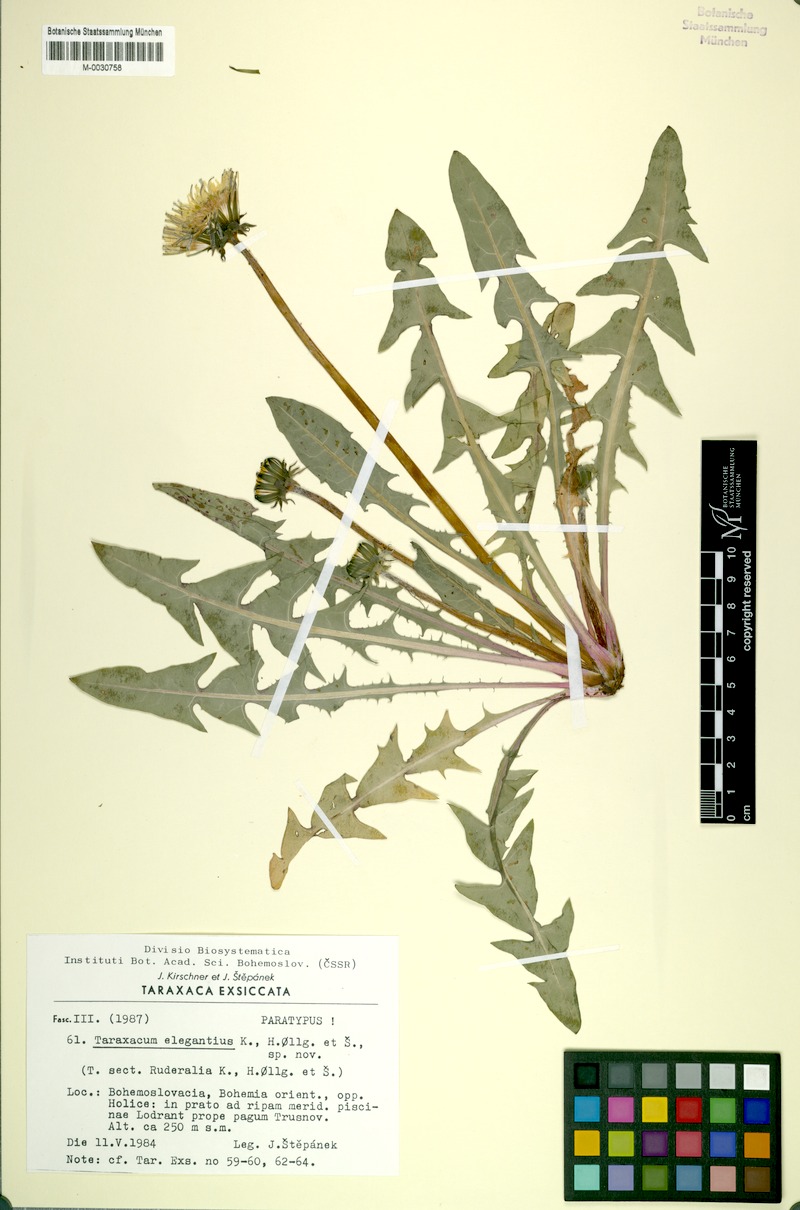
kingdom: Plantae
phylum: Tracheophyta
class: Magnoliopsida
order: Asterales
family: Asteraceae
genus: Taraxacum
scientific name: Taraxacum elegantius
